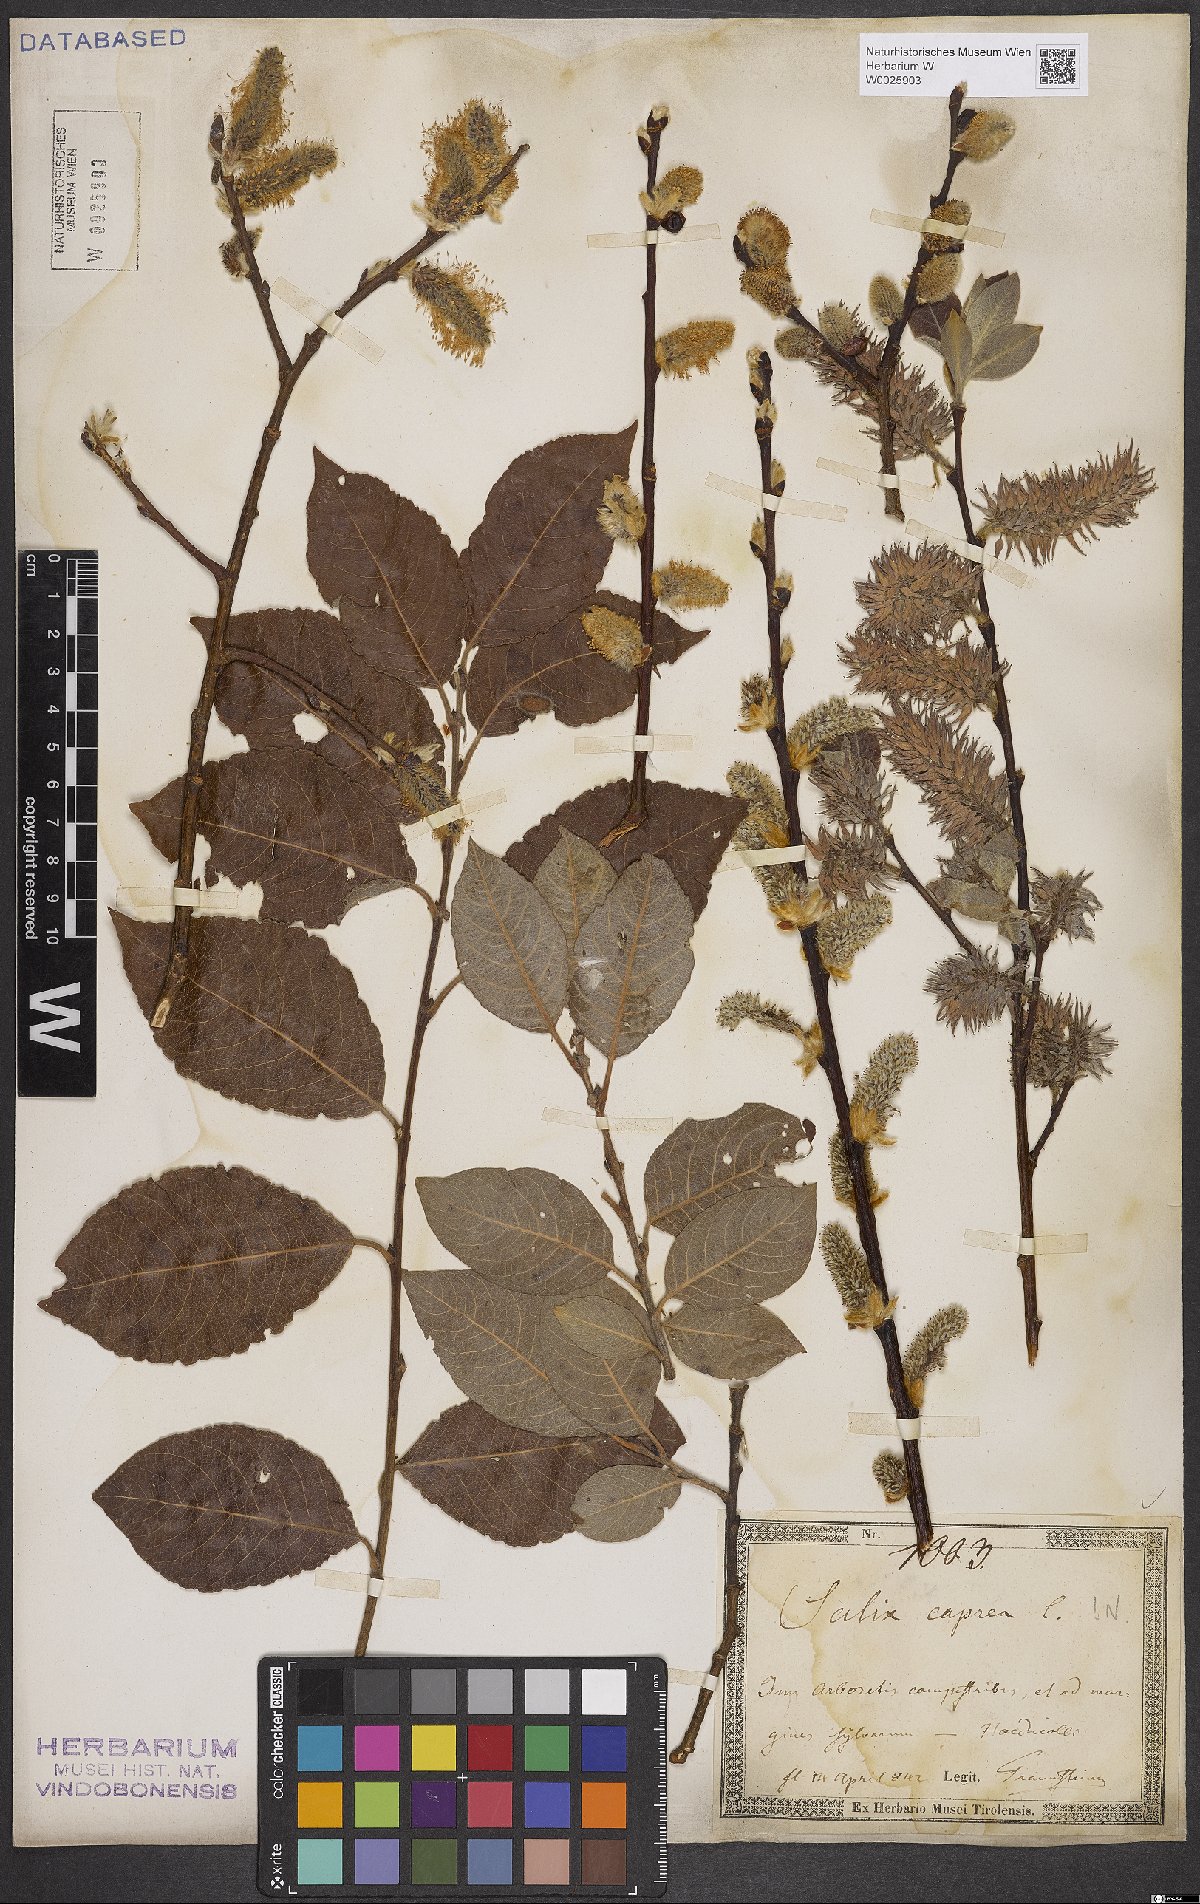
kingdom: Plantae
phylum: Tracheophyta
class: Magnoliopsida
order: Malpighiales
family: Salicaceae
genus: Salix
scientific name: Salix caprea
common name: Goat willow
